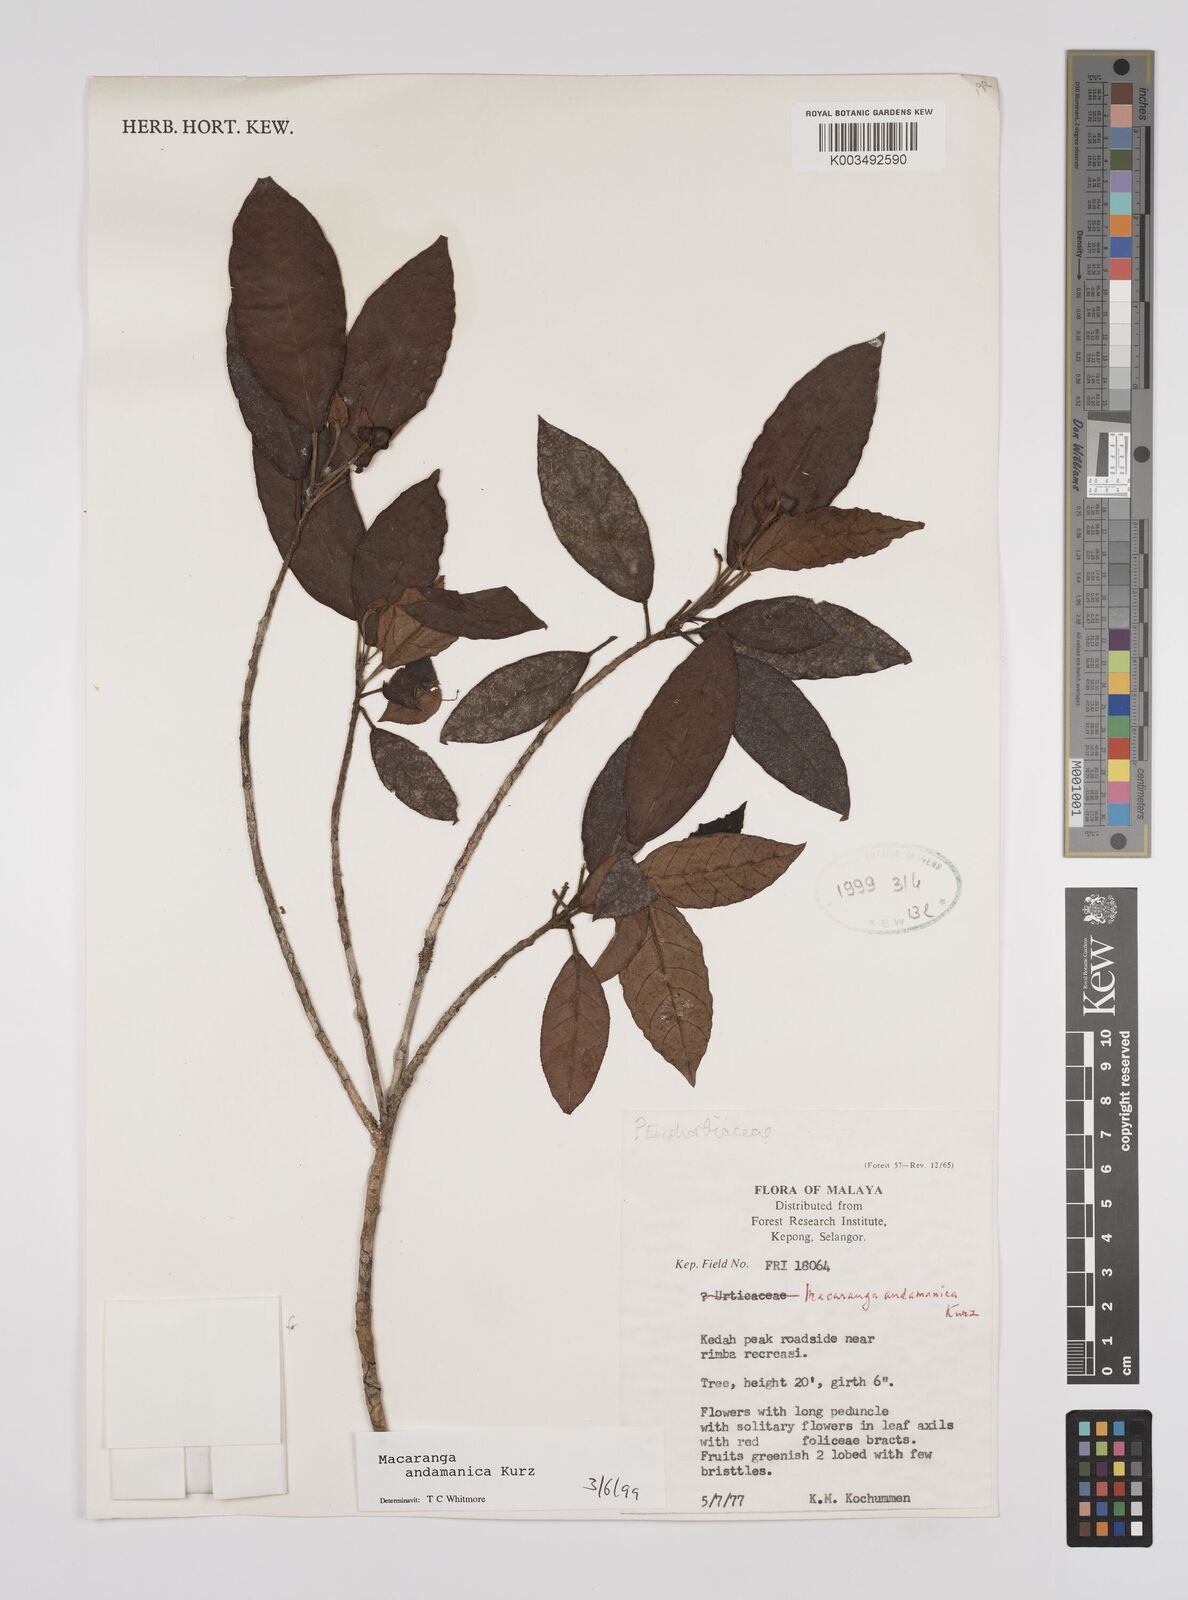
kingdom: Plantae
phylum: Tracheophyta
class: Magnoliopsida
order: Malpighiales
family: Euphorbiaceae
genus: Macaranga
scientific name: Macaranga andamanica
